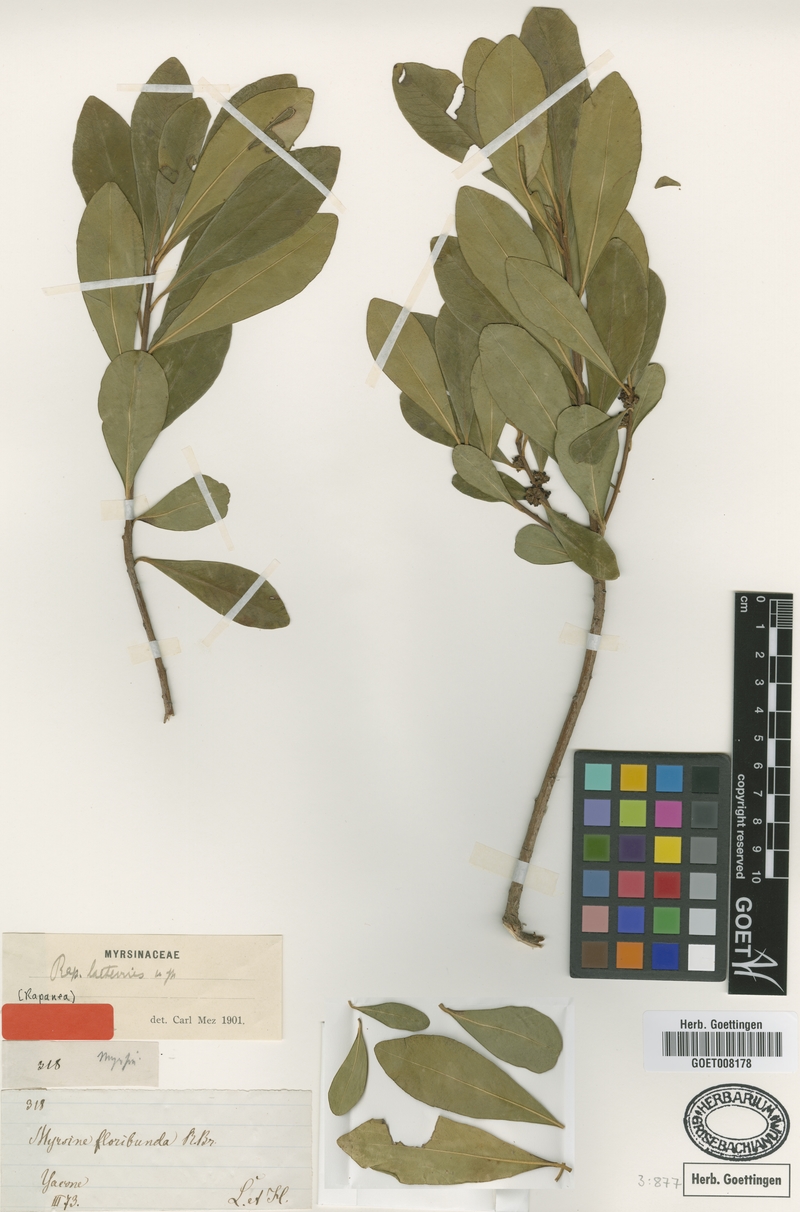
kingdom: Plantae
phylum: Tracheophyta
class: Magnoliopsida
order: Ericales
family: Primulaceae
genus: Myrsine
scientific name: Myrsine laetevirens
